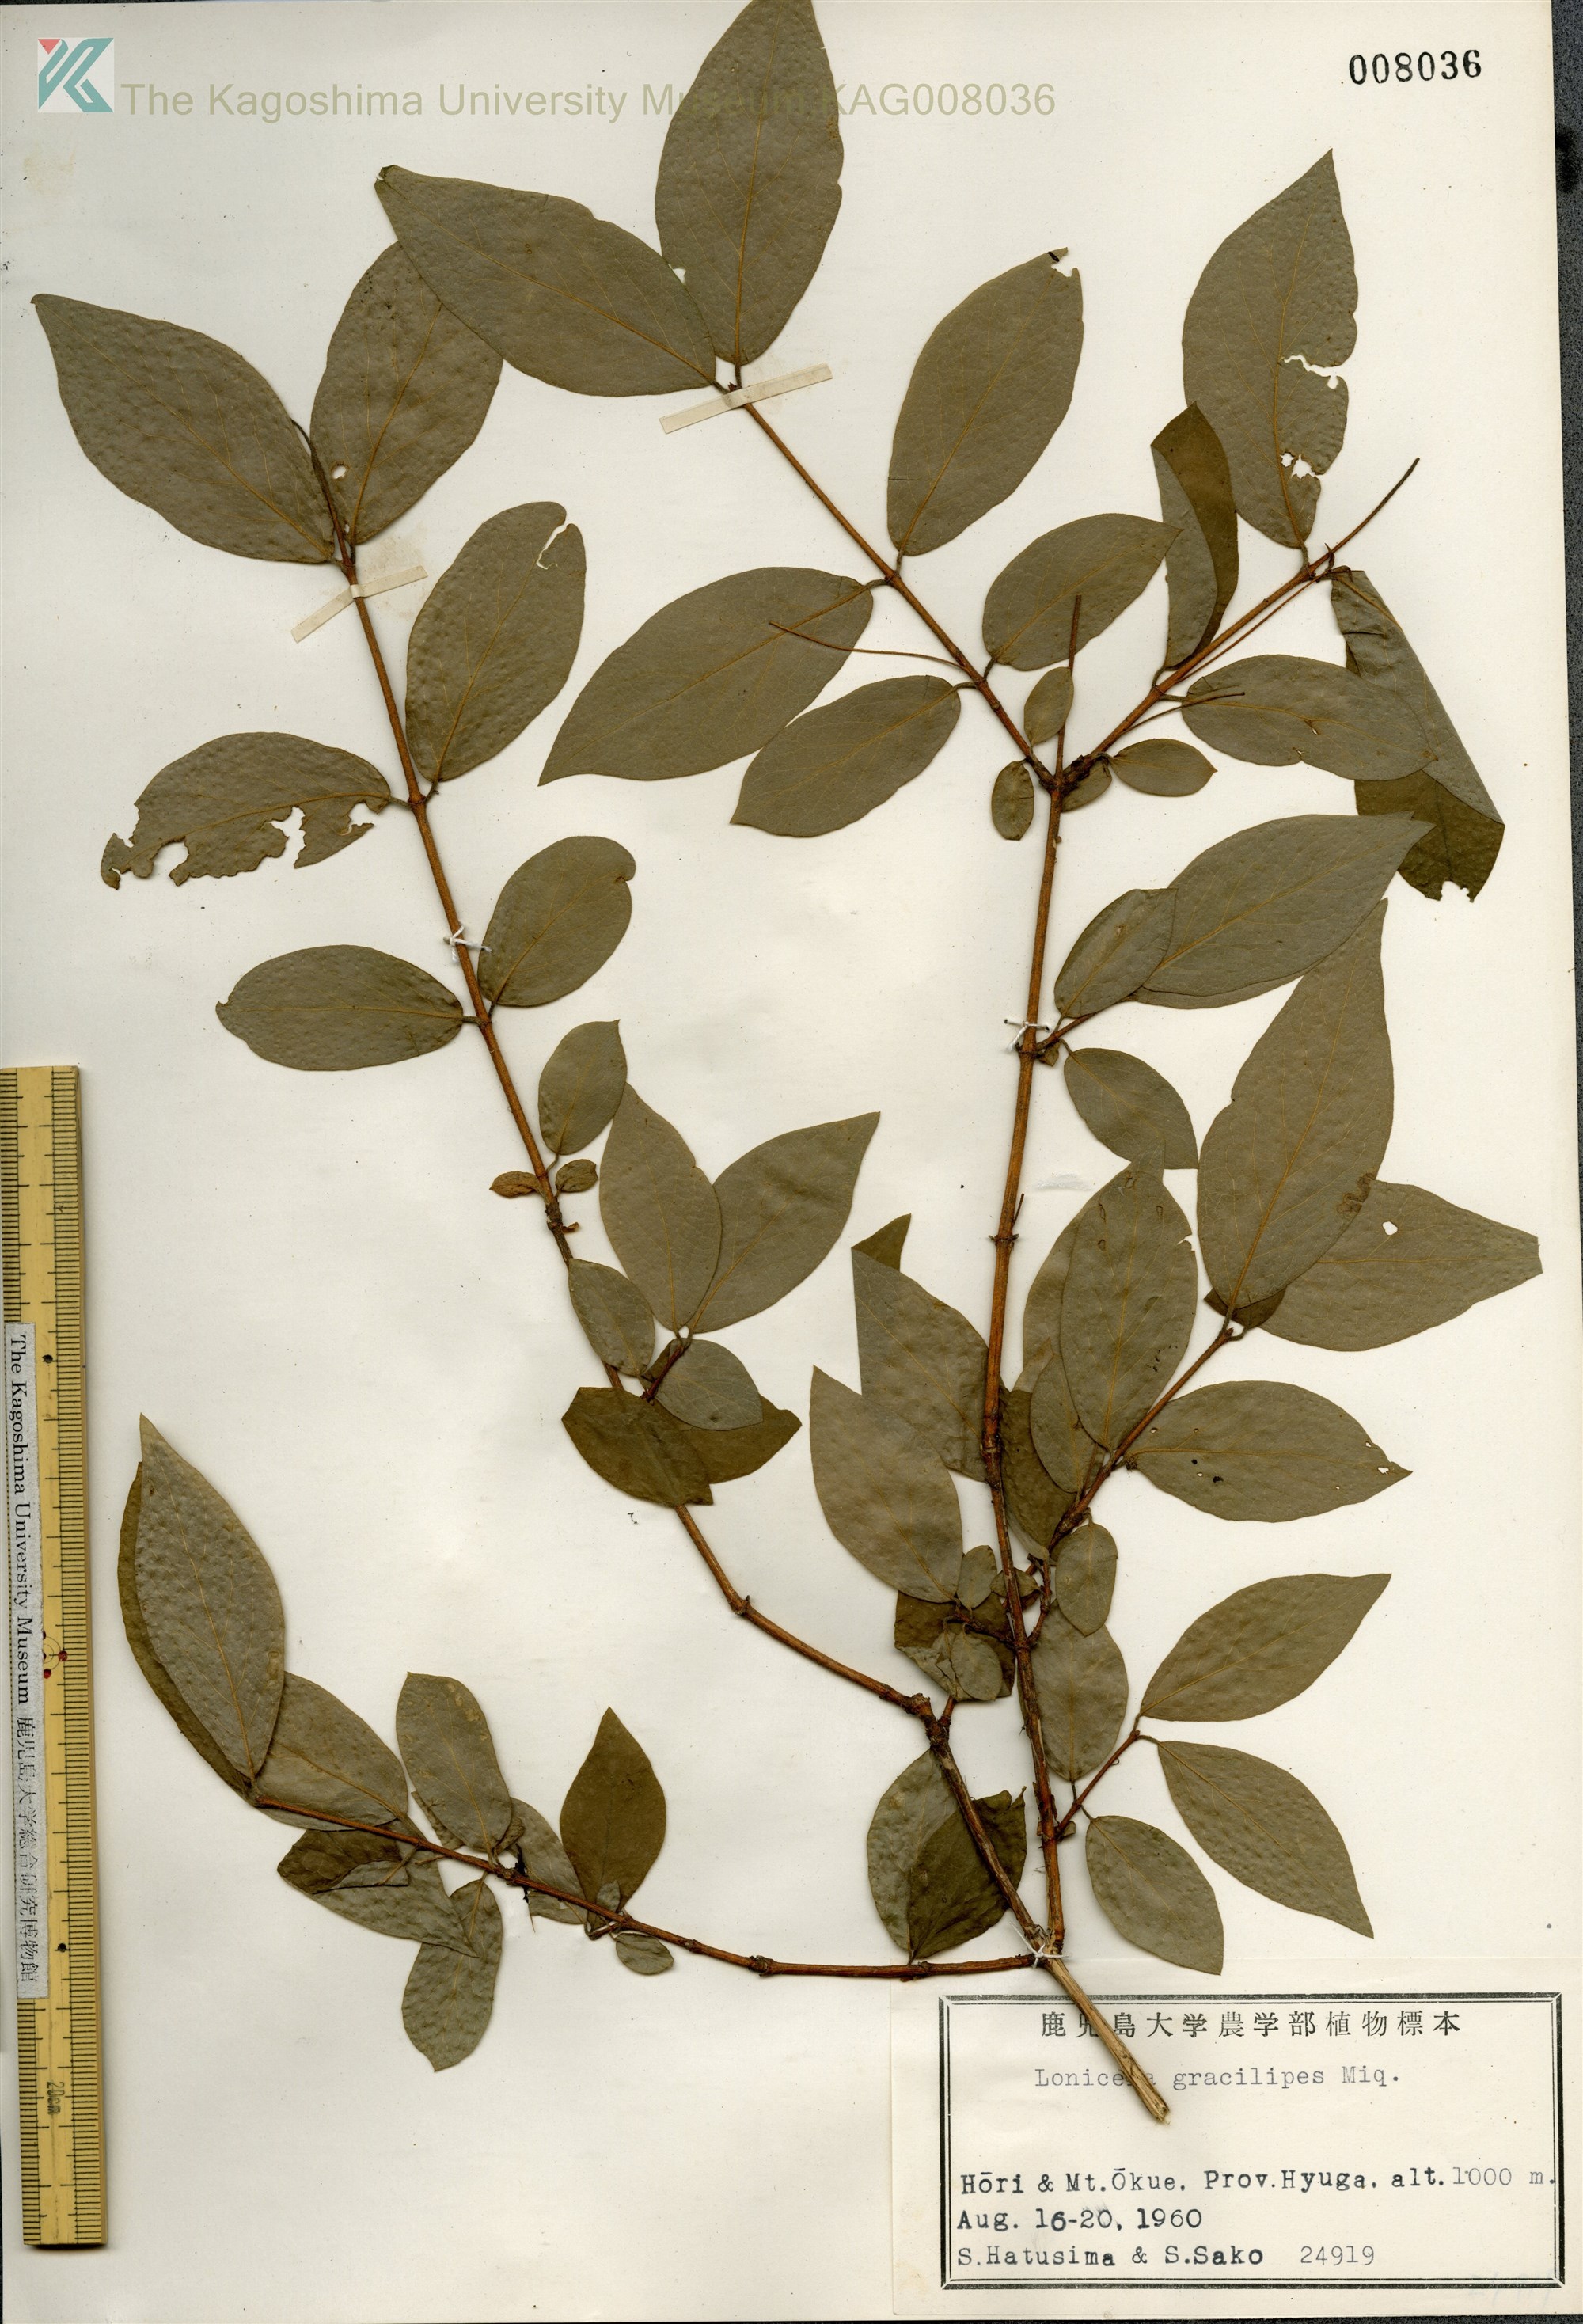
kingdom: Plantae
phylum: Tracheophyta
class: Magnoliopsida
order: Dipsacales
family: Caprifoliaceae
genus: Lonicera
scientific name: Lonicera gracilipes
